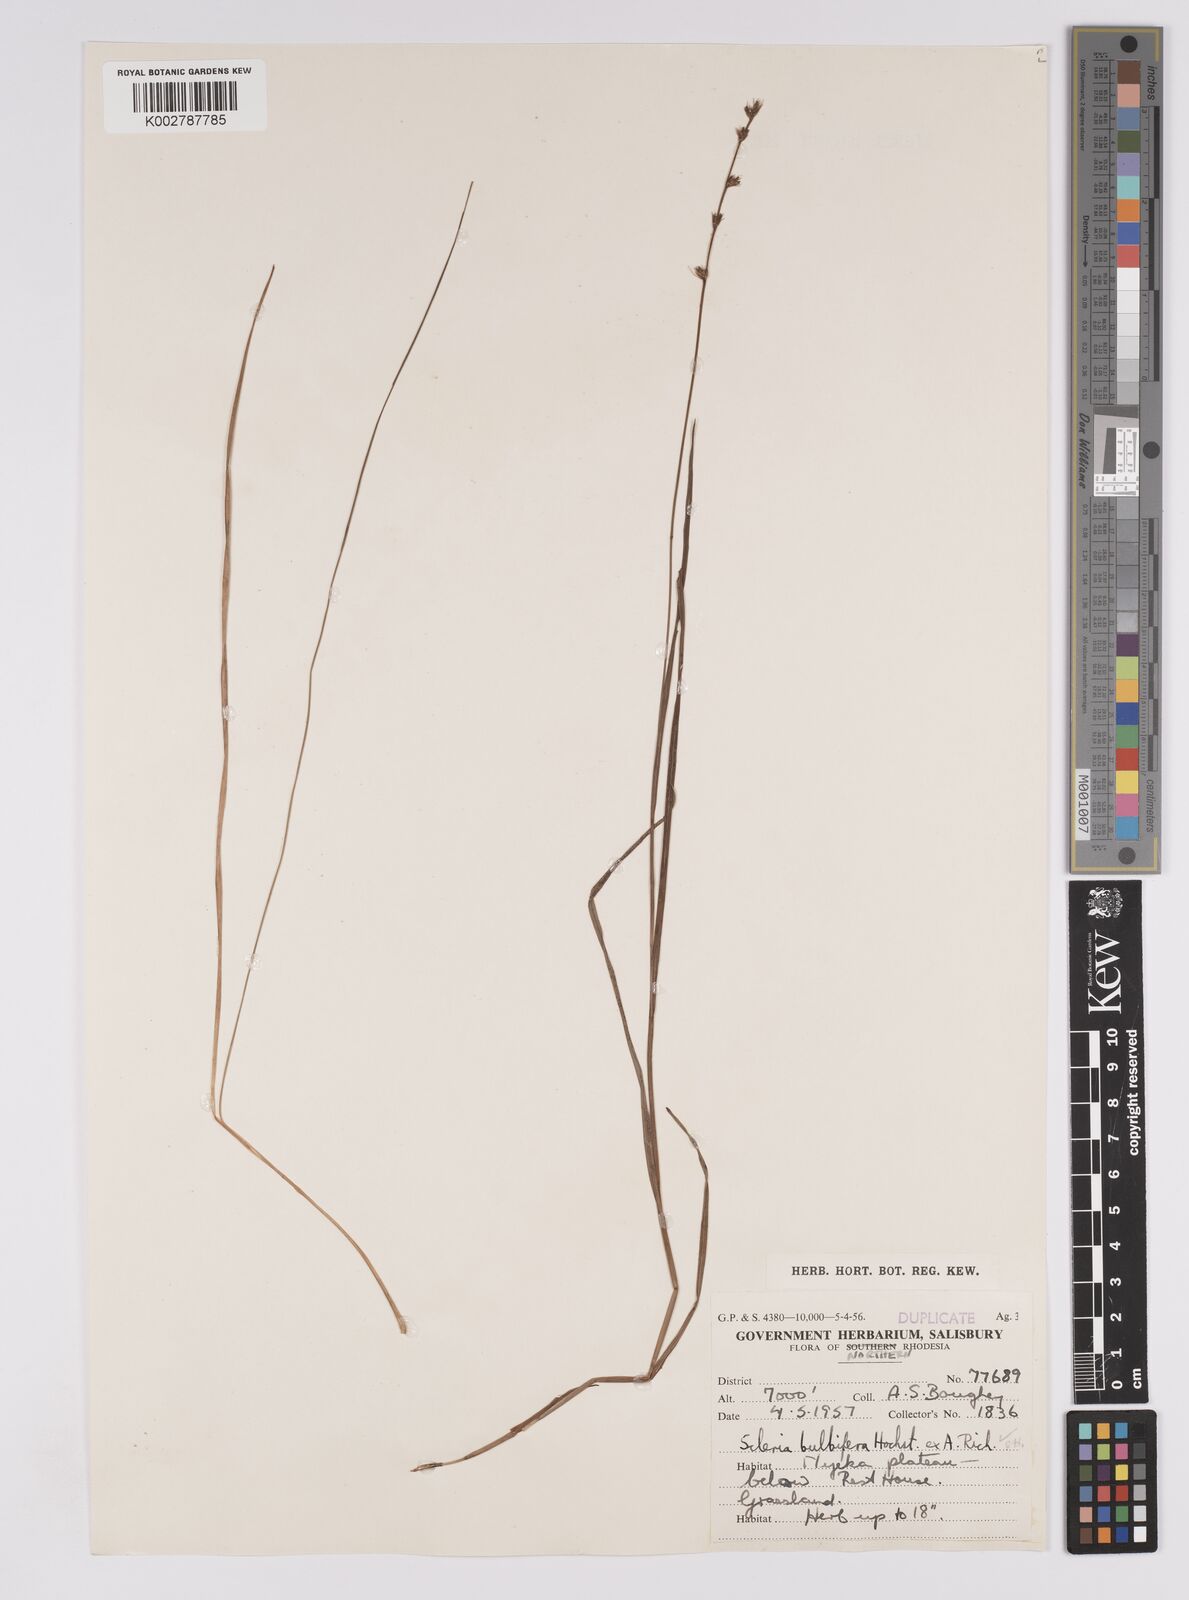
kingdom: Plantae
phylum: Tracheophyta
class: Liliopsida
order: Poales
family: Cyperaceae
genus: Scleria
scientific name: Scleria bulbifera
